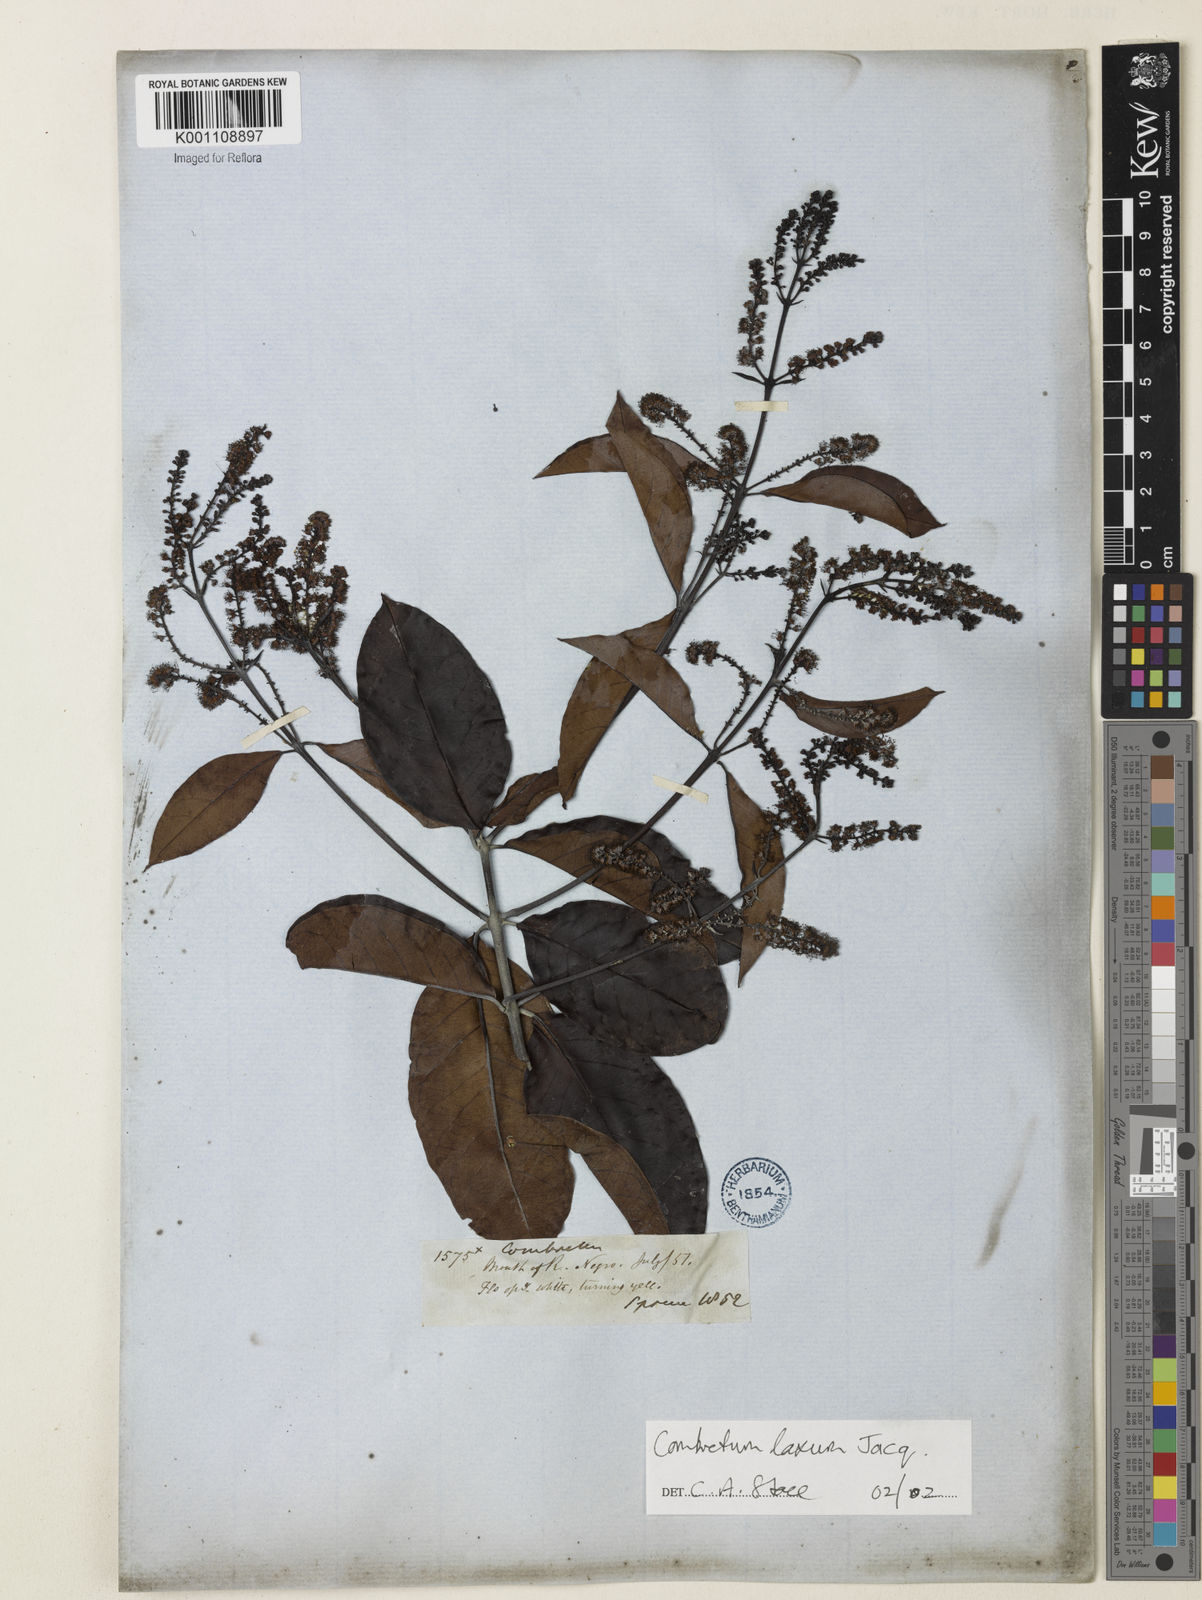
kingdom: Plantae
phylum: Tracheophyta
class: Magnoliopsida
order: Myrtales
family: Combretaceae
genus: Combretum
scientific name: Combretum laxum
